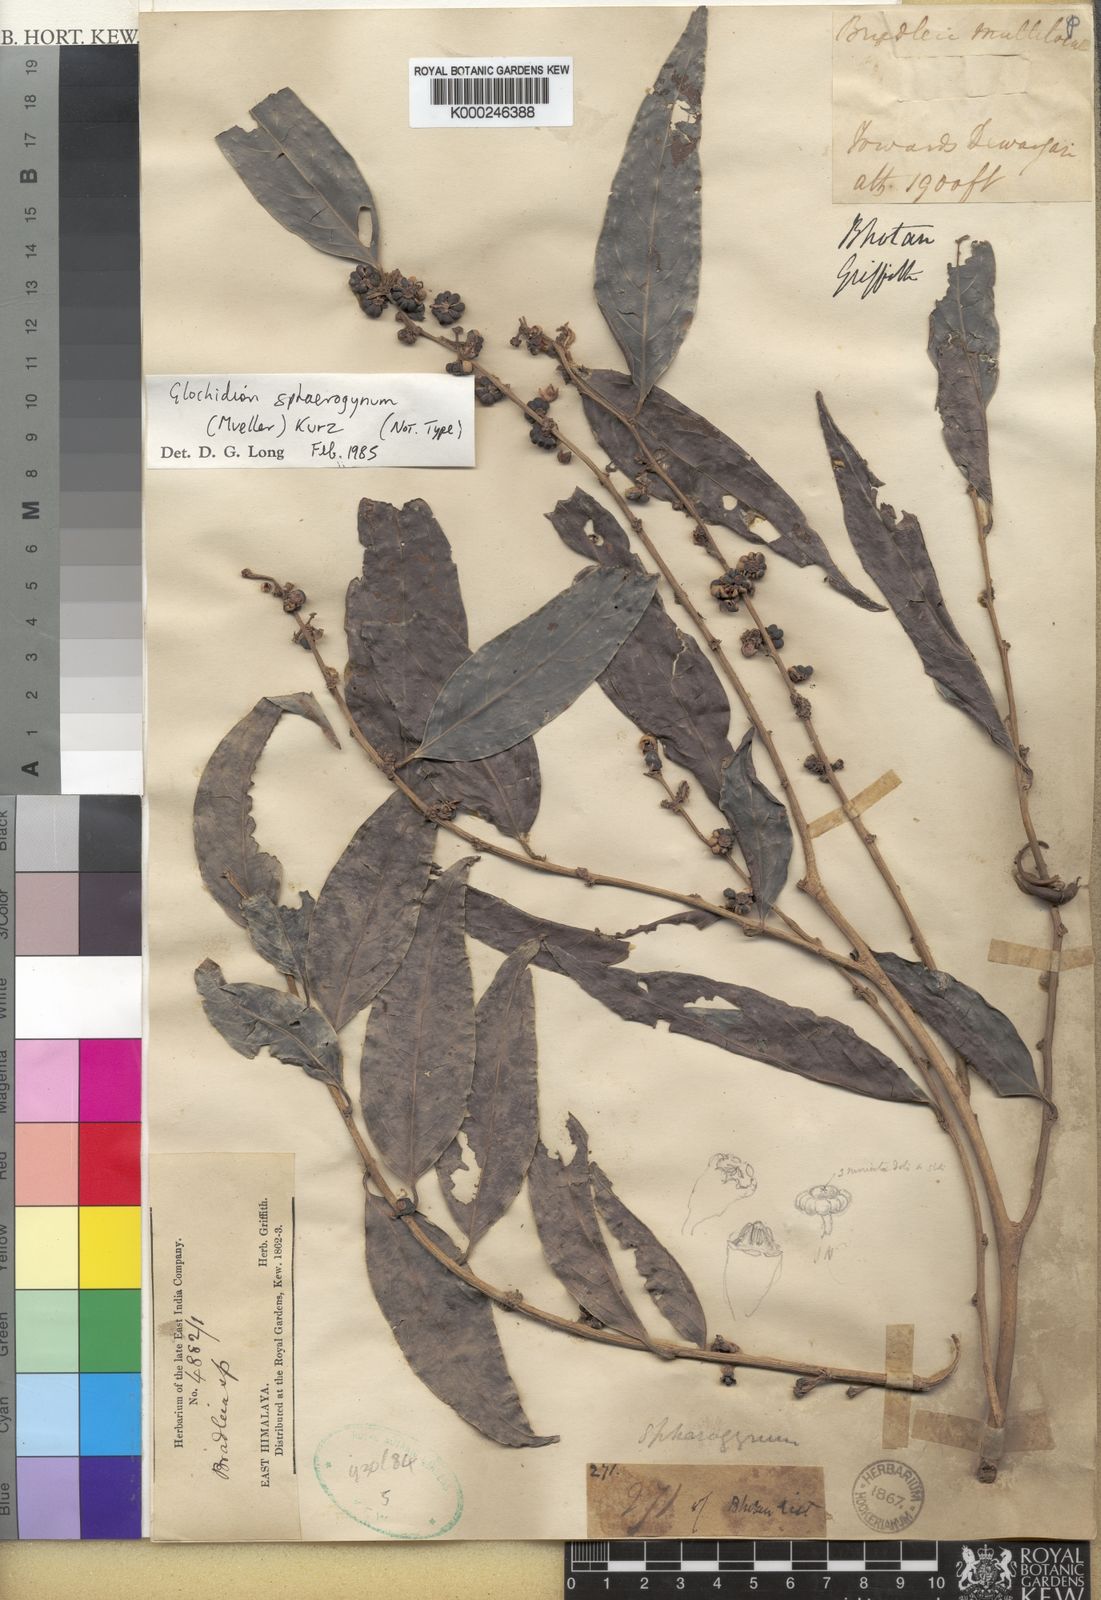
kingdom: Plantae
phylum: Tracheophyta
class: Magnoliopsida
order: Malpighiales
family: Phyllanthaceae
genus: Glochidion
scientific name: Glochidion
